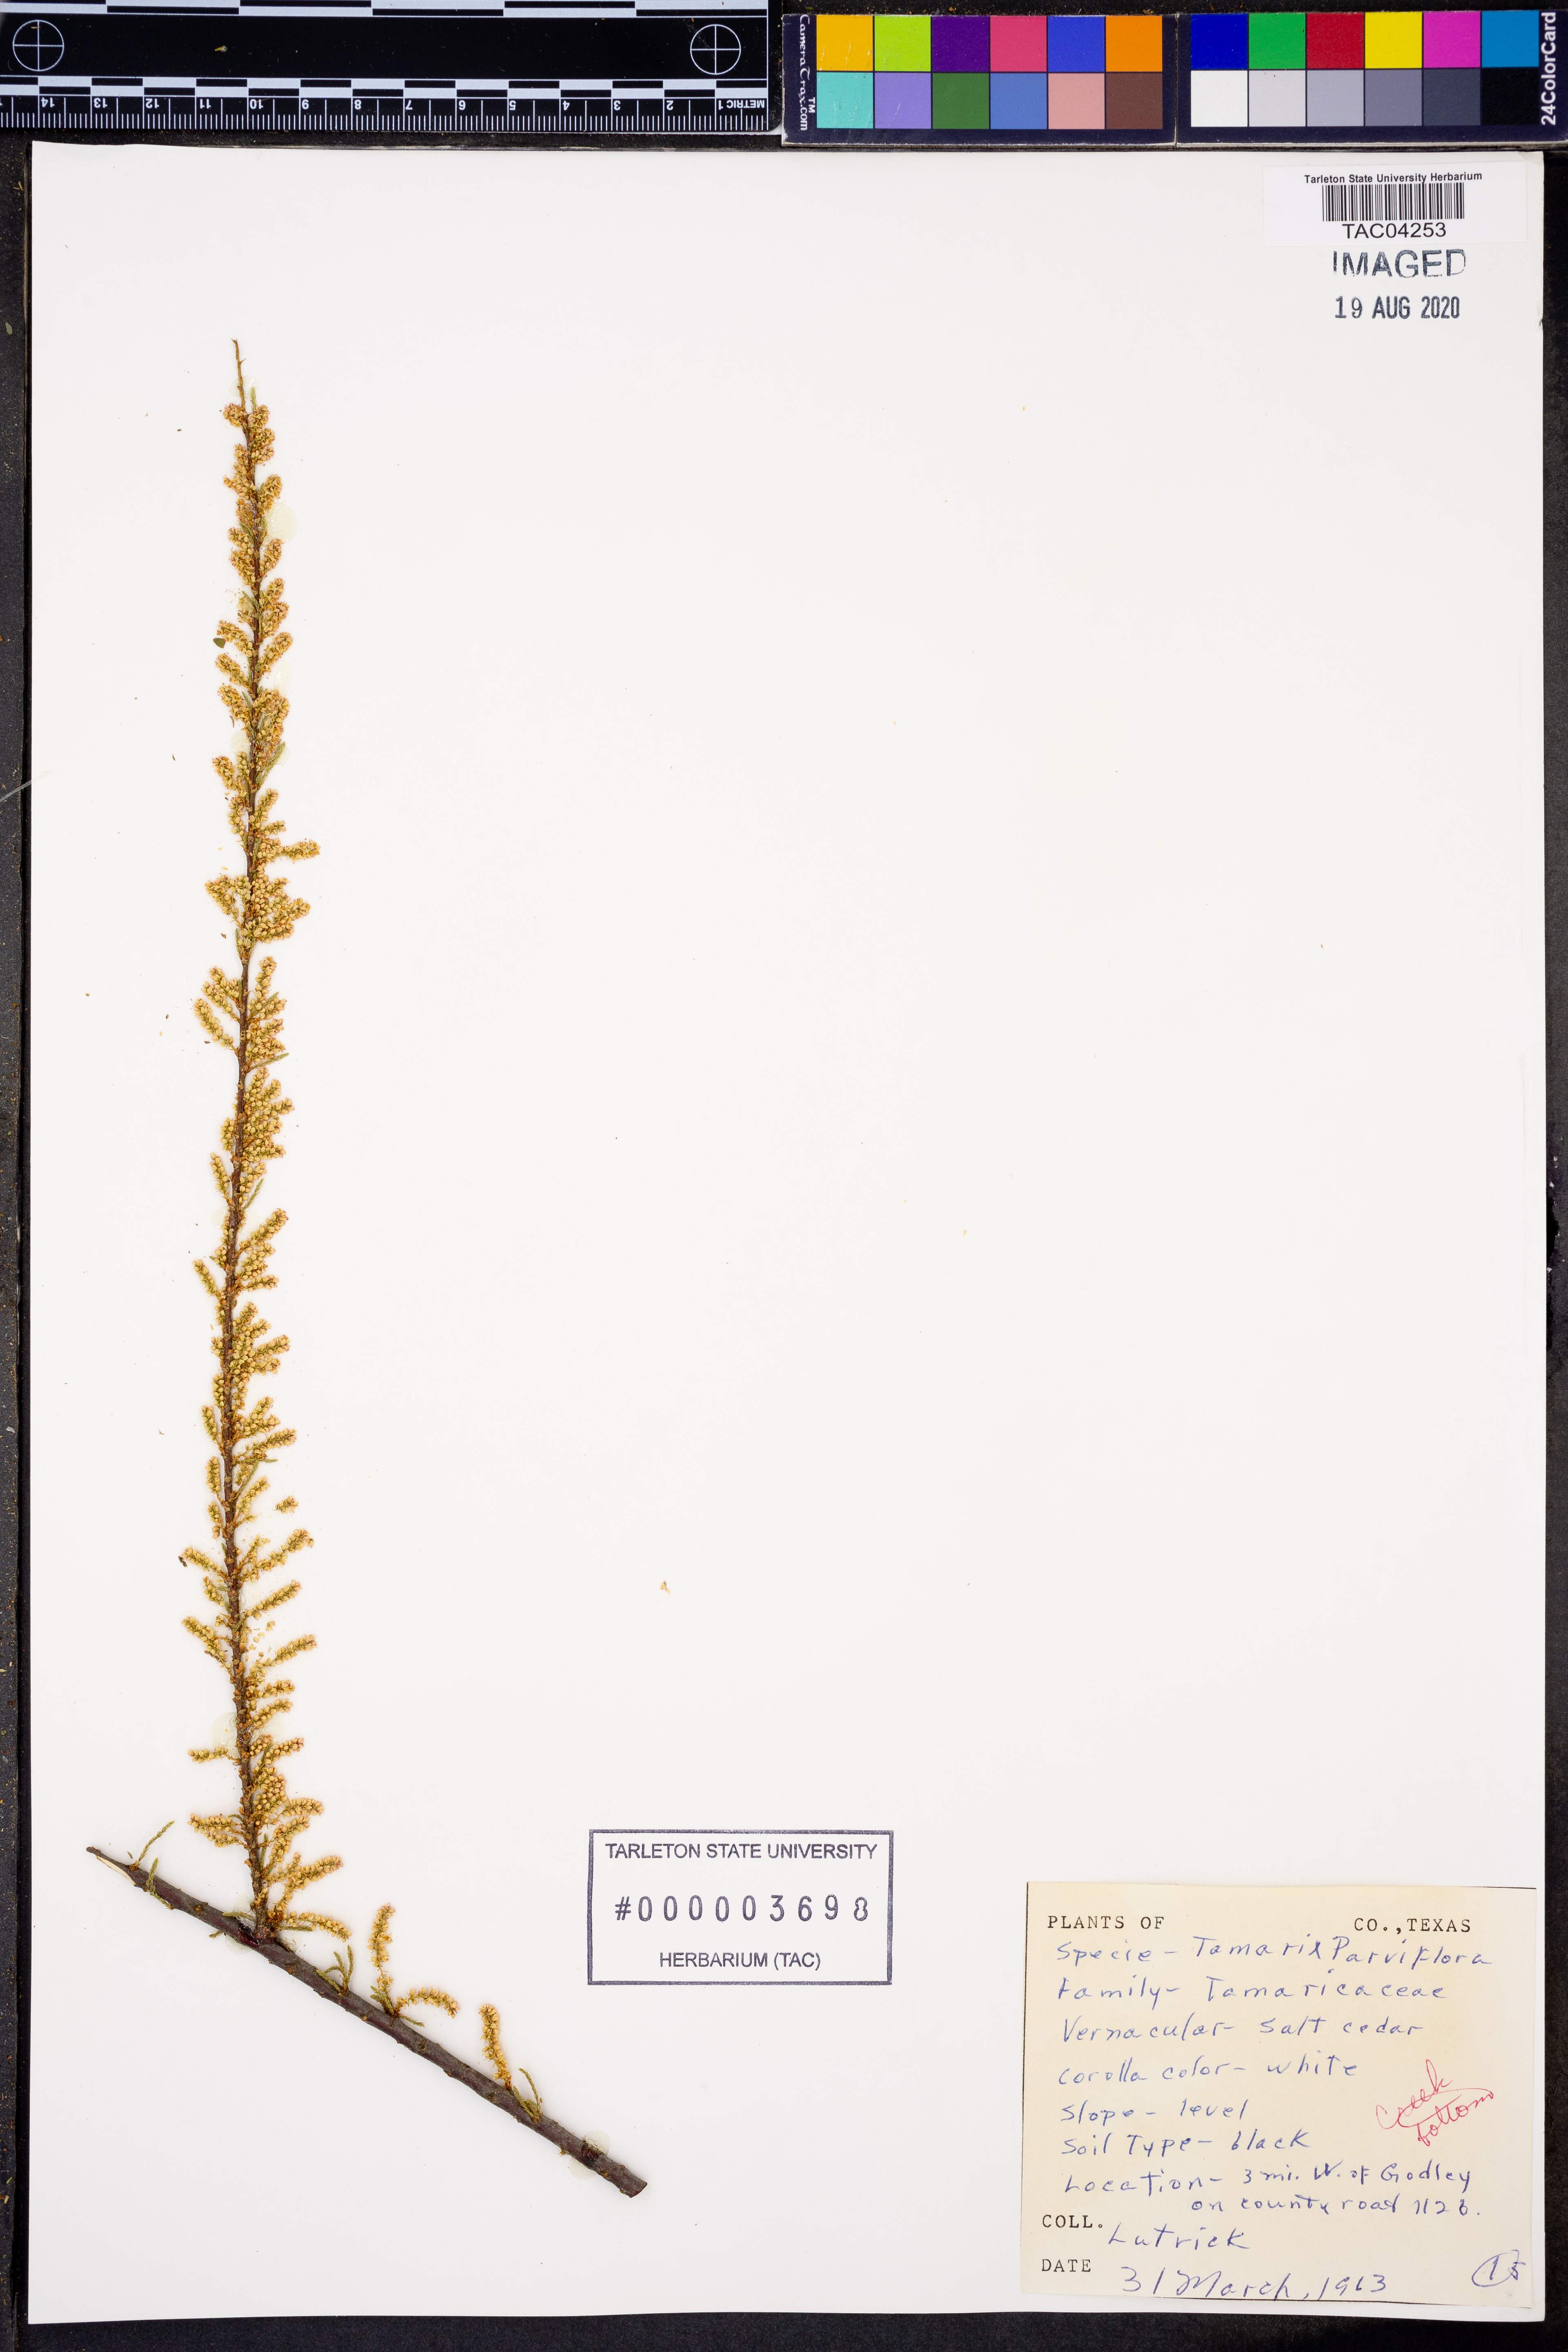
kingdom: Plantae
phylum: Tracheophyta
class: Magnoliopsida
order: Caryophyllales
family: Tamaricaceae
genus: Tamarix
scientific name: Tamarix parviflora
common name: Smallflower tamarisk
